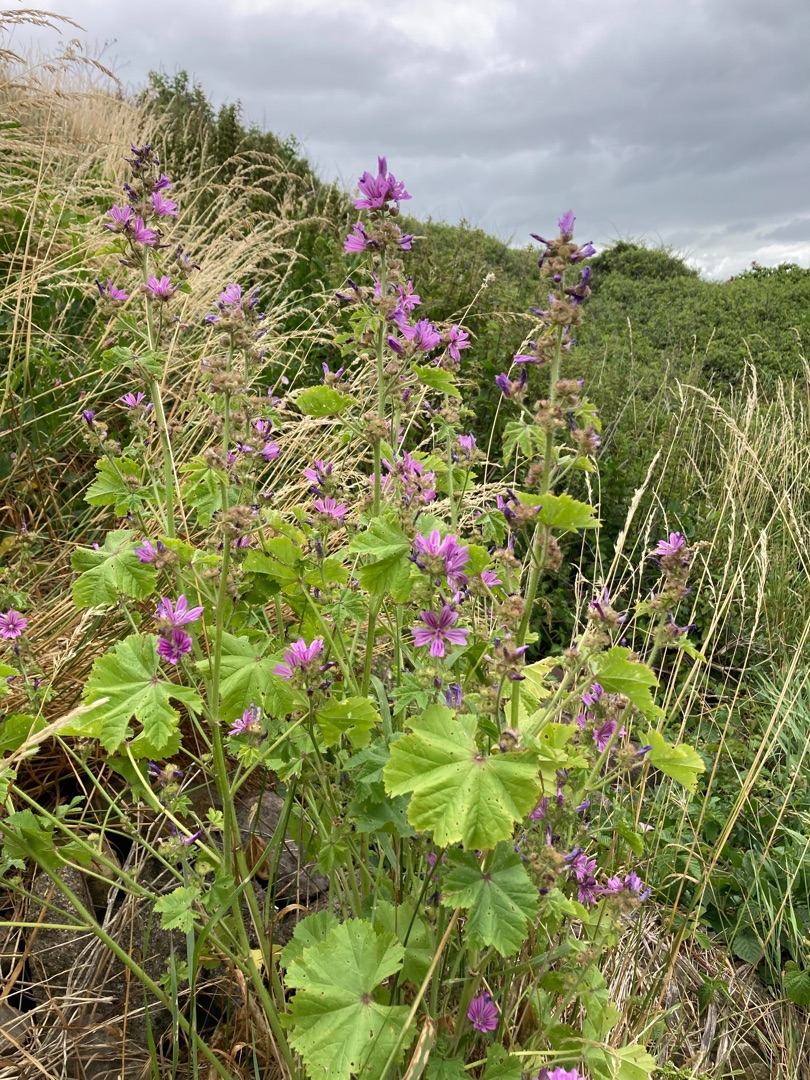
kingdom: Plantae
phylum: Tracheophyta
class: Magnoliopsida
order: Malvales
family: Malvaceae
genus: Malva
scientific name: Malva sylvestris
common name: Almindelig katost
